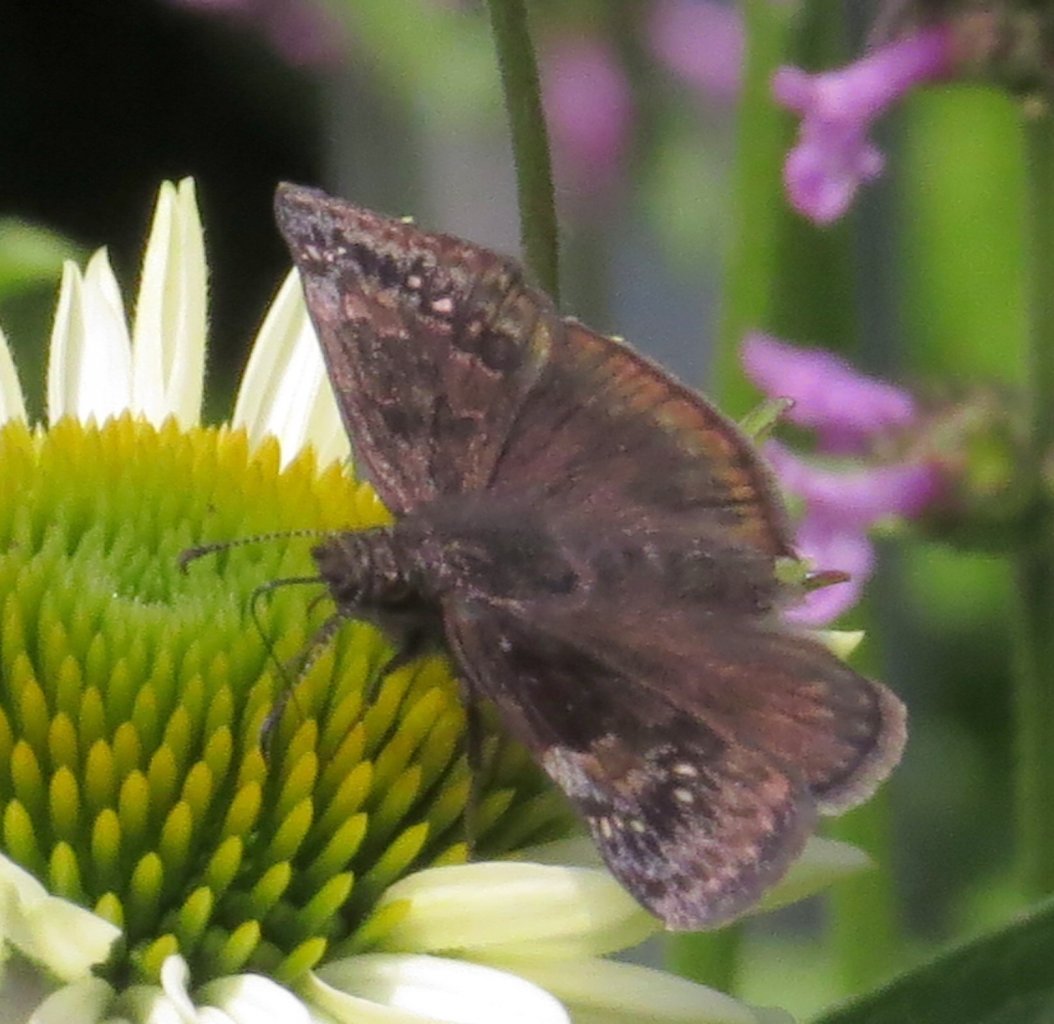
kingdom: Animalia
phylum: Arthropoda
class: Insecta
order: Lepidoptera
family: Hesperiidae
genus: Gesta
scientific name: Gesta
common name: Wild Indigo Duskywing
